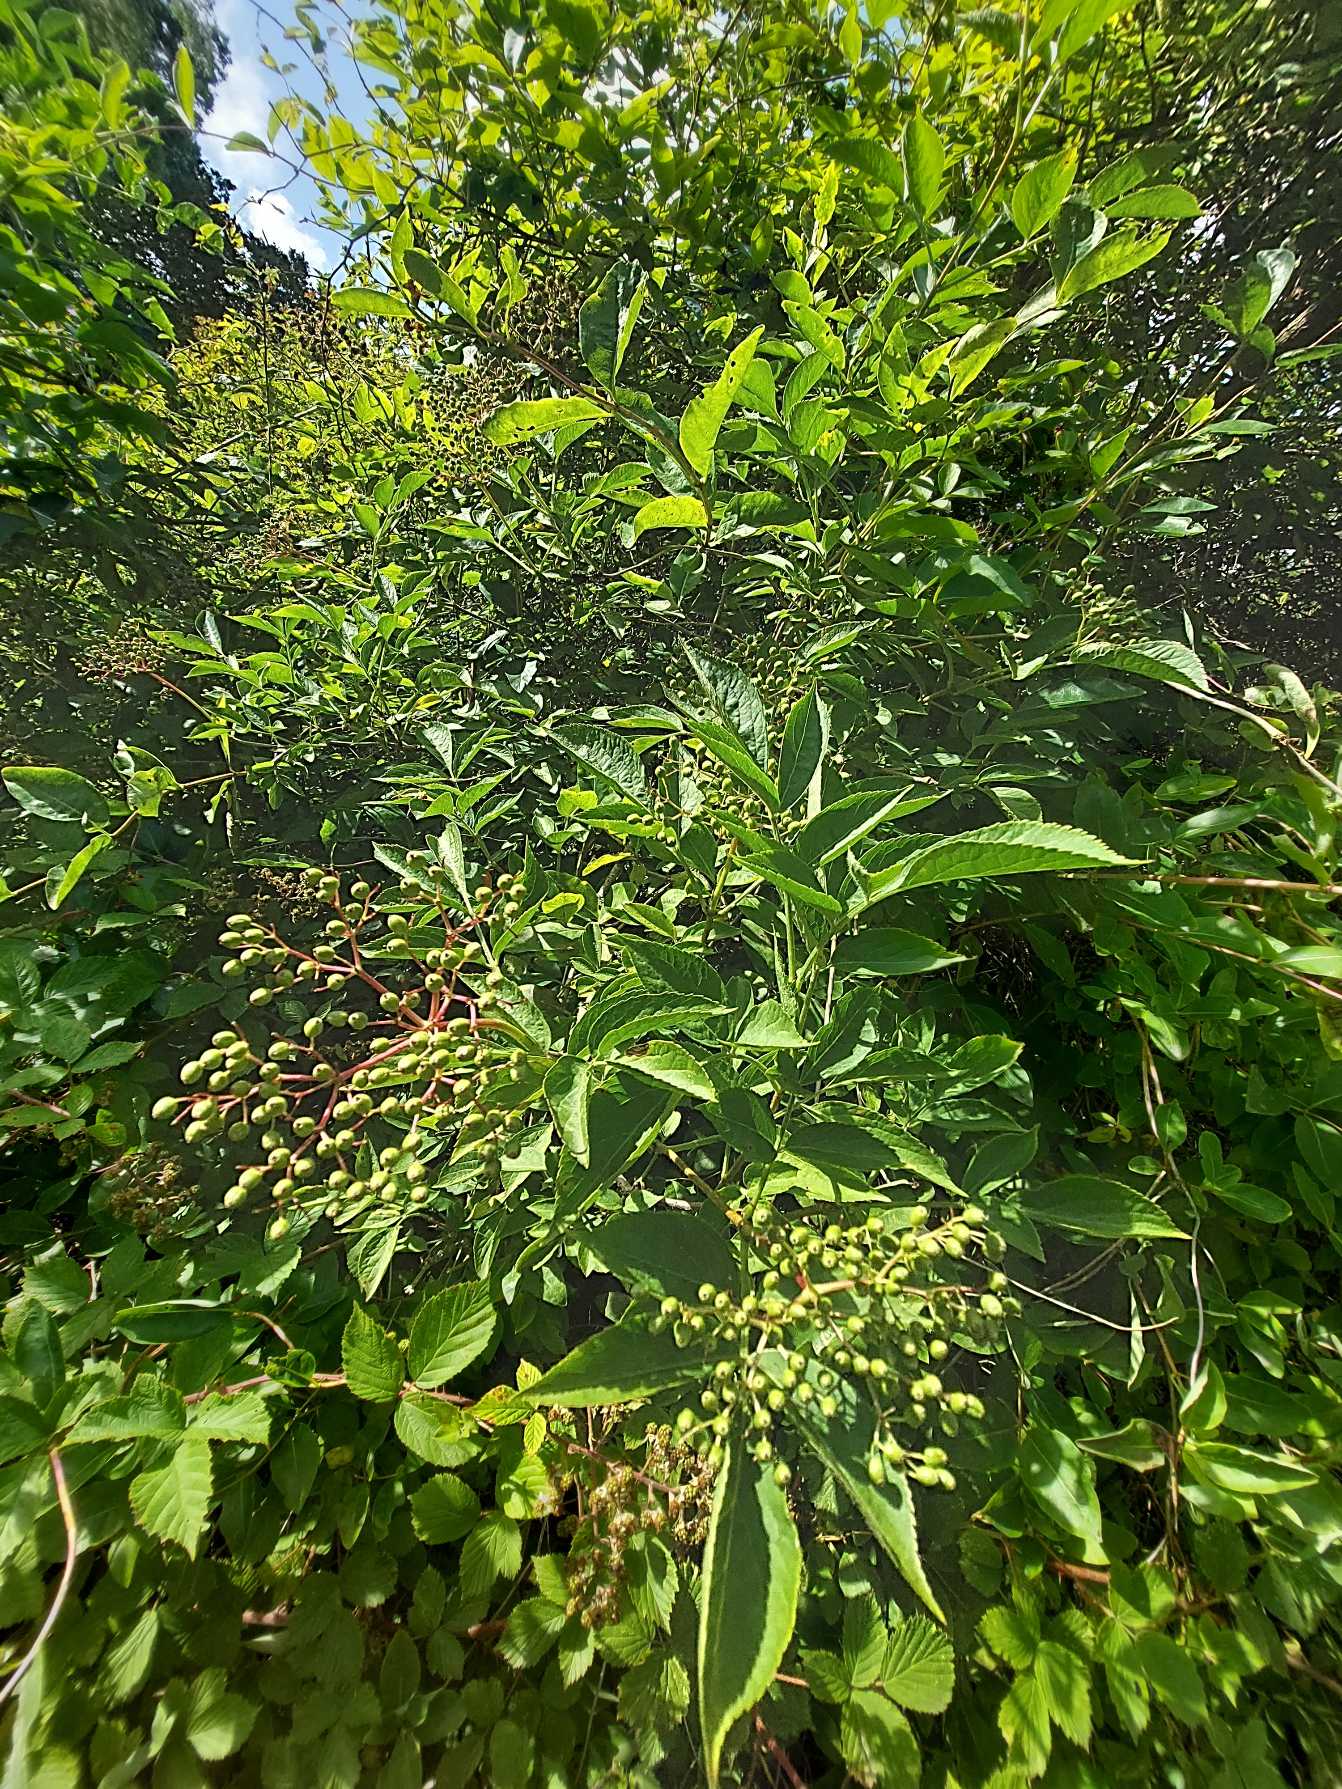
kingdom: Plantae
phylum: Tracheophyta
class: Magnoliopsida
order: Dipsacales
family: Viburnaceae
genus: Sambucus
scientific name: Sambucus nigra
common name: Almindelig hyld
